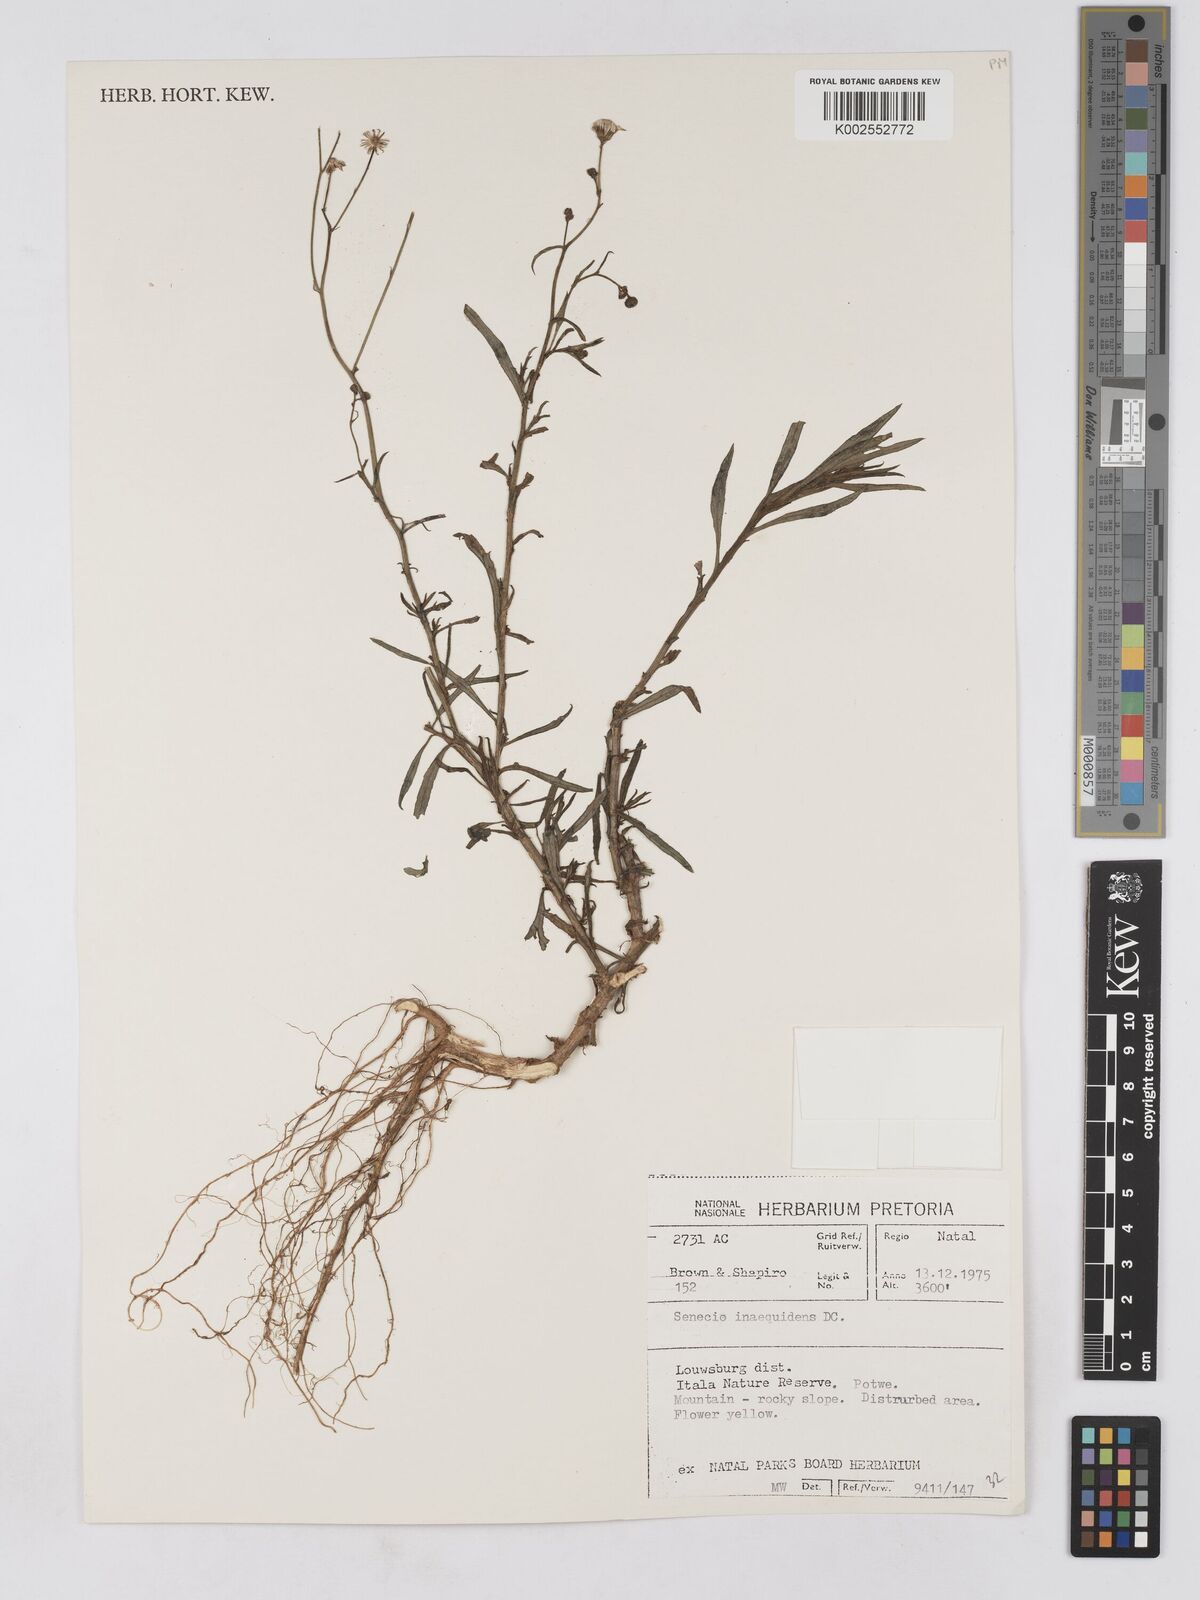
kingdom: Plantae
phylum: Tracheophyta
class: Magnoliopsida
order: Asterales
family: Asteraceae
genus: Senecio
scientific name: Senecio madagascariensis
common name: Madagascar ragwort
